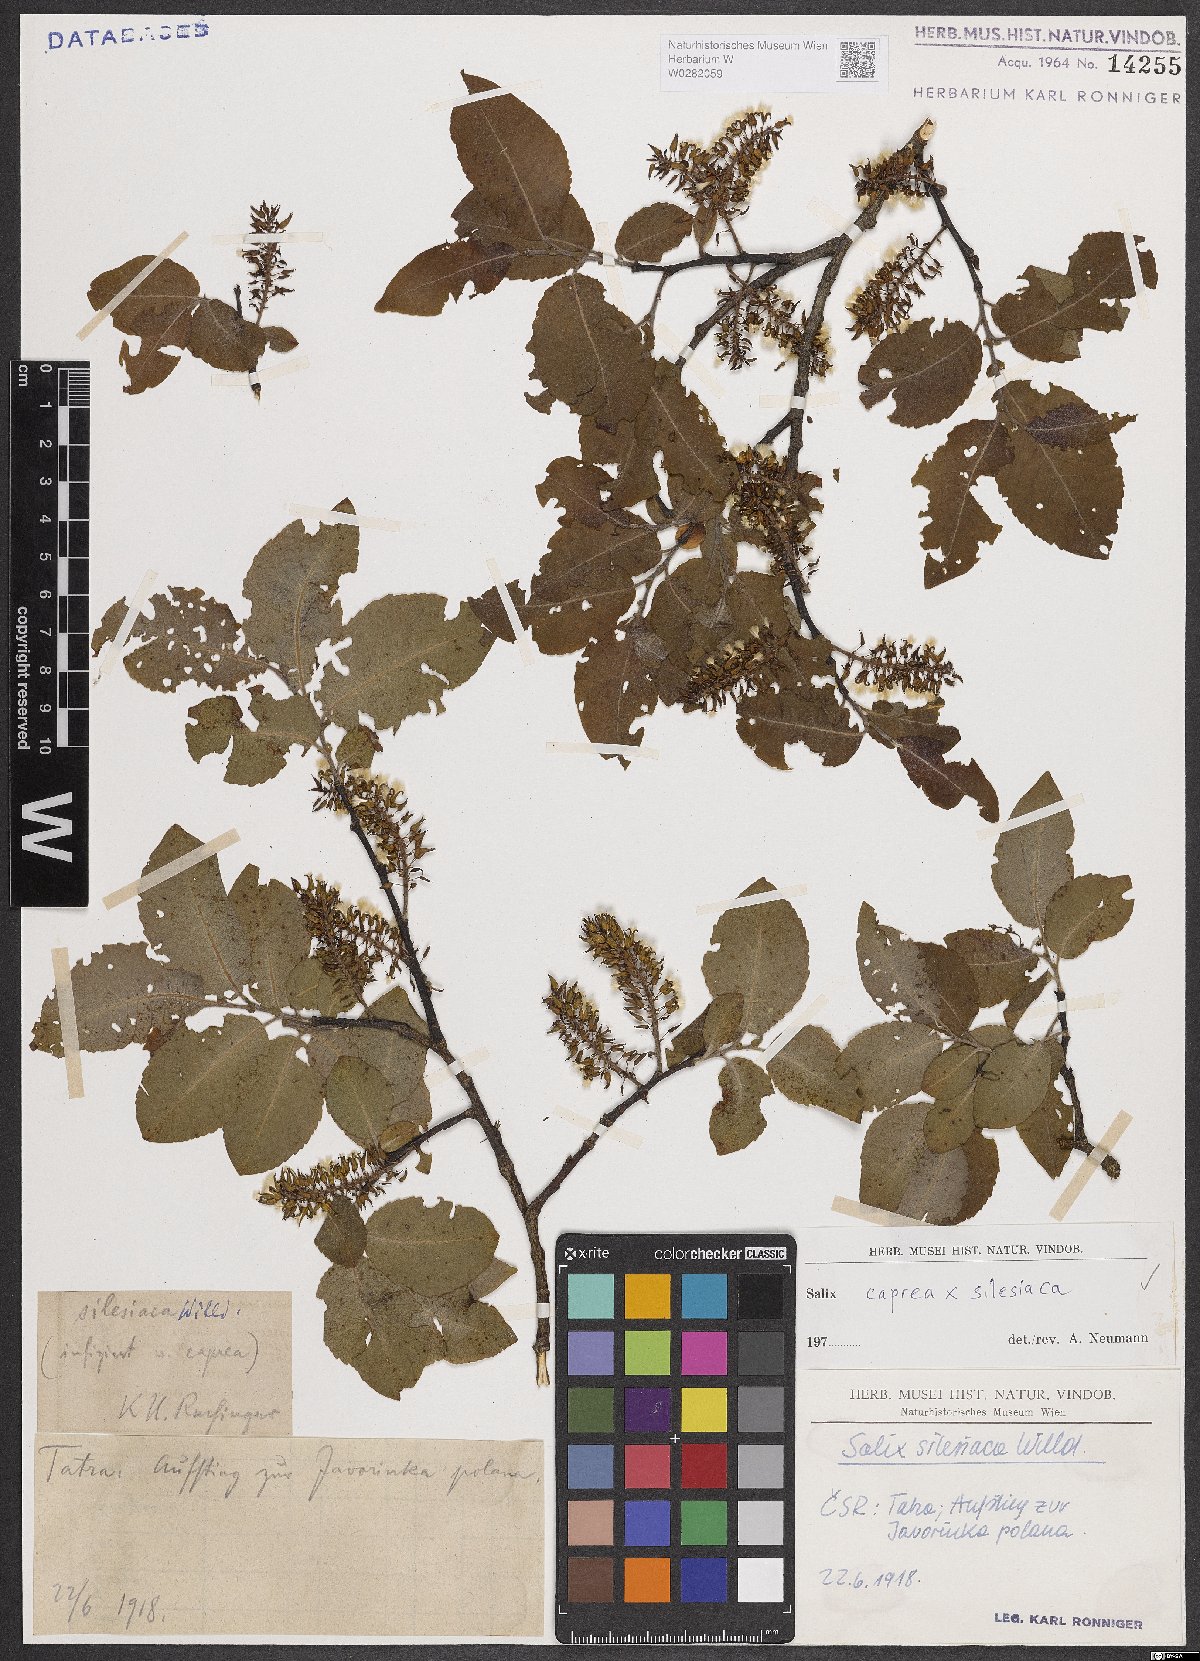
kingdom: Plantae
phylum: Tracheophyta
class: Magnoliopsida
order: Malpighiales
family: Salicaceae
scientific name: Salicaceae
